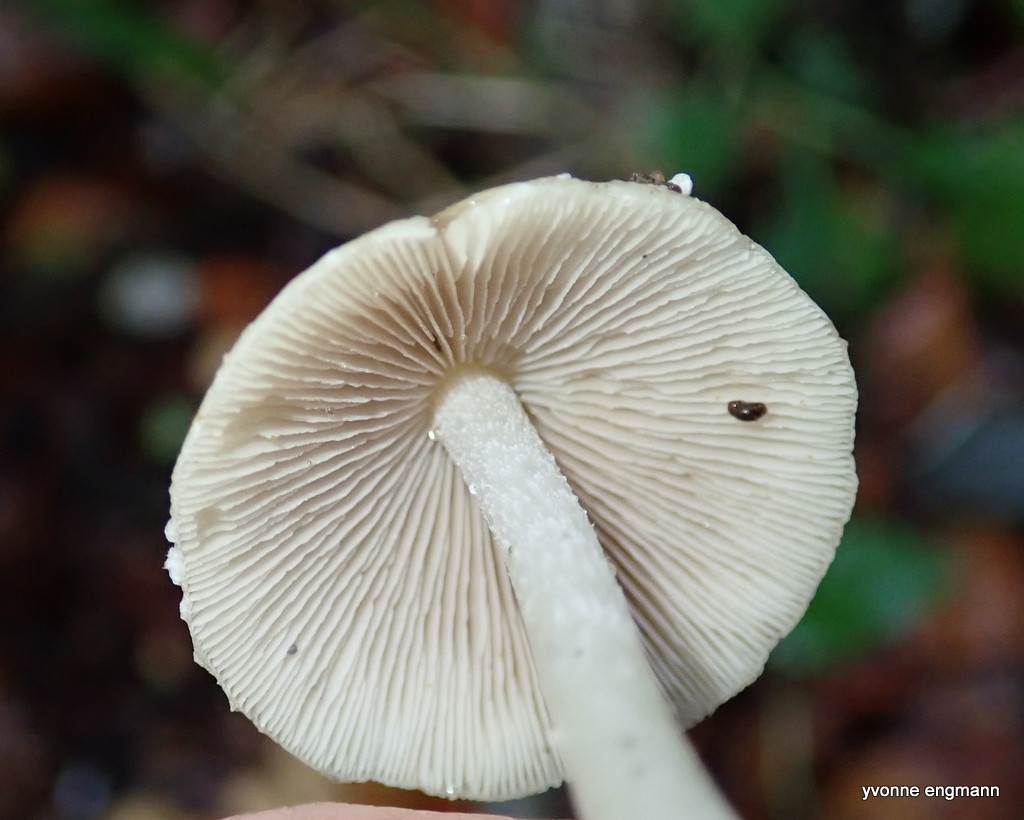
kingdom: Fungi
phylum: Basidiomycota
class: Agaricomycetes
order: Agaricales
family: Psathyrellaceae
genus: Candolleomyces
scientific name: Candolleomyces candolleanus
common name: Candolles mørkhat
